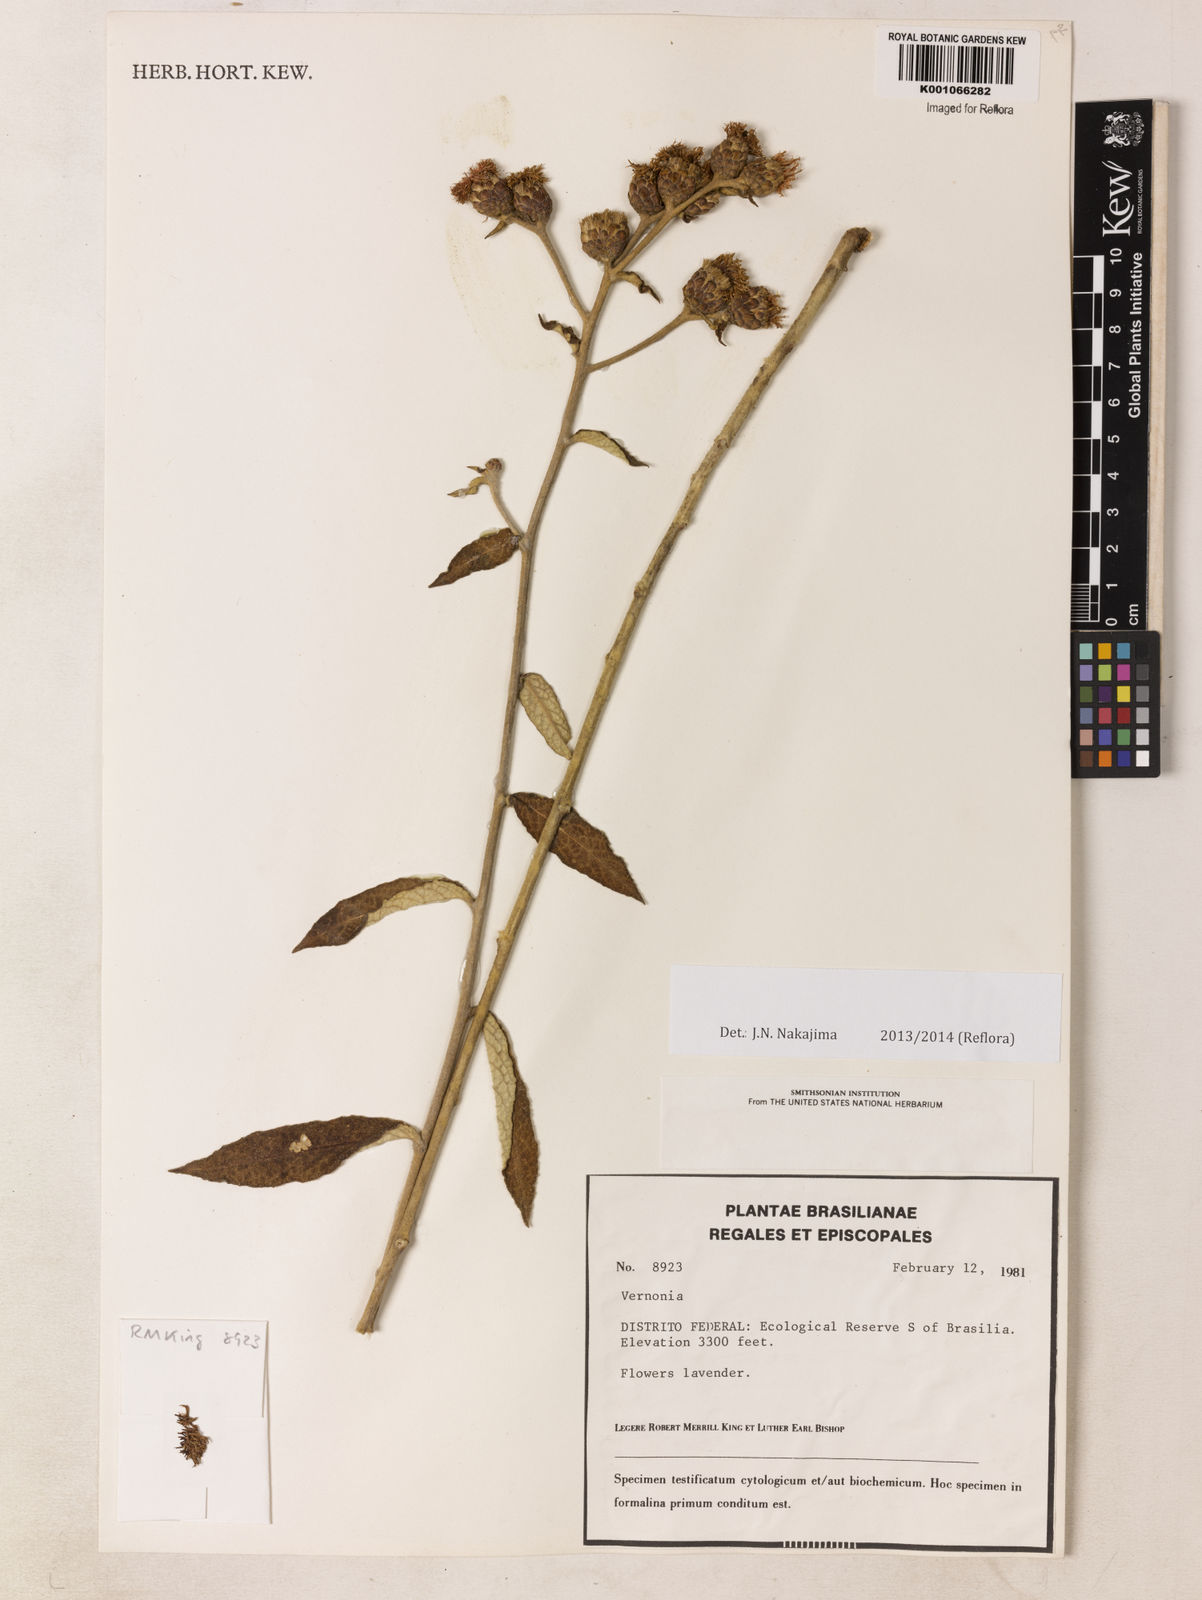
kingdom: Plantae
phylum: Tracheophyta
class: Magnoliopsida
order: Asterales
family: Asteraceae
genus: Lessingianthus
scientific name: Lessingianthus buddlejifolius
